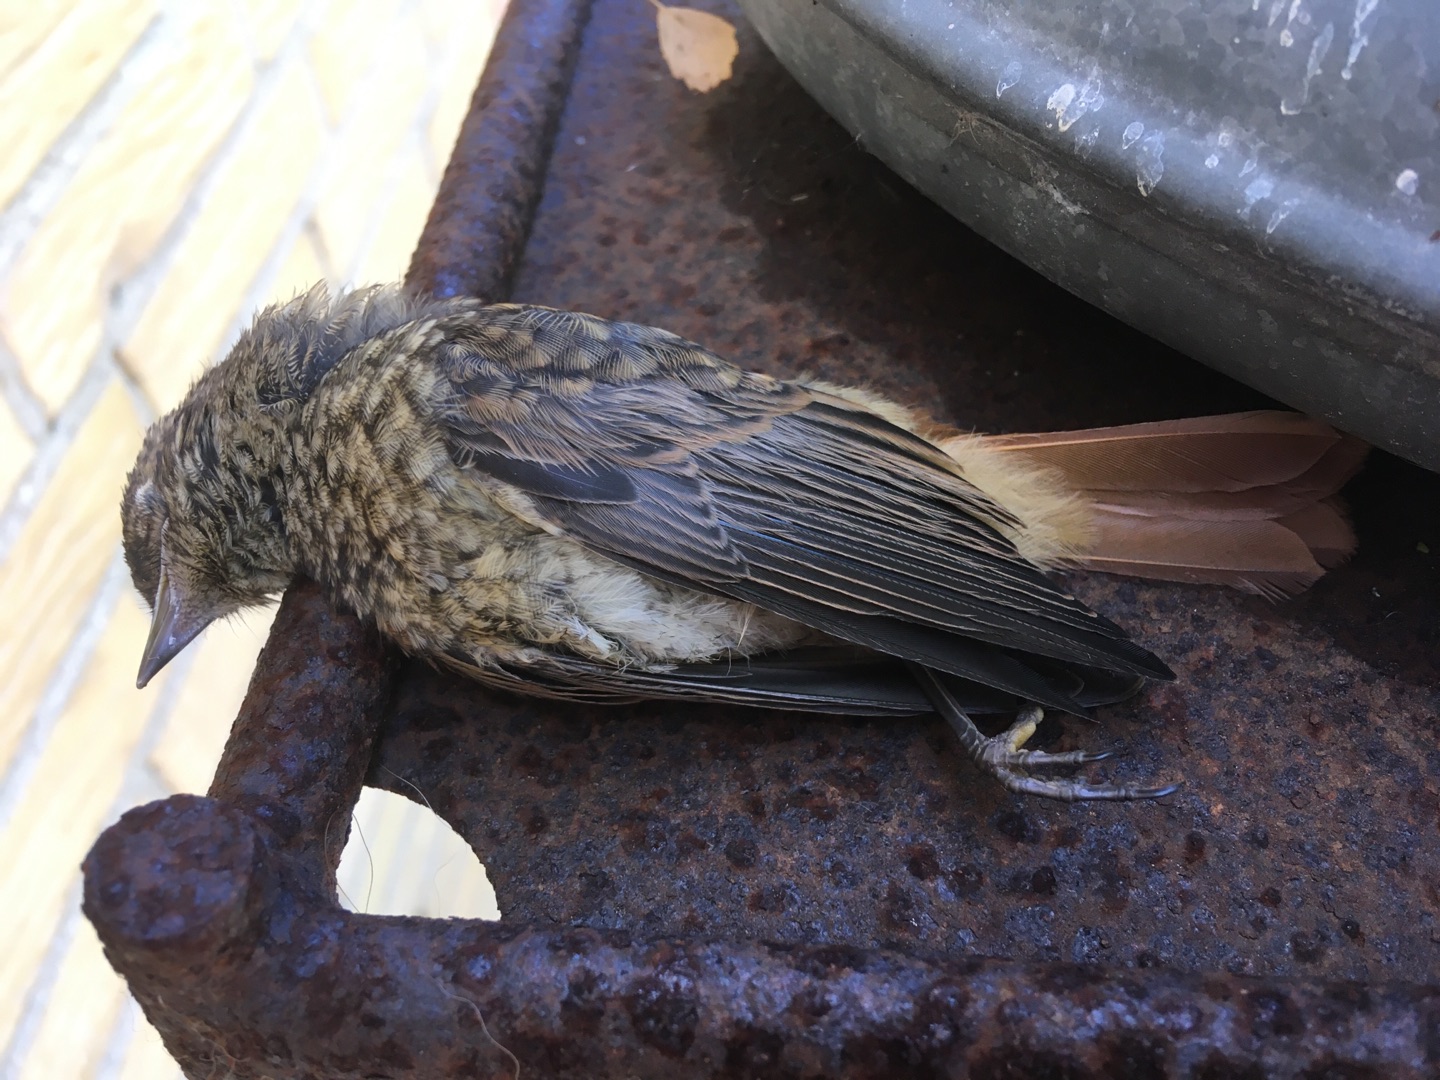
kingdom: Animalia
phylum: Chordata
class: Aves
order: Passeriformes
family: Muscicapidae
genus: Phoenicurus
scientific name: Phoenicurus phoenicurus
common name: Rødstjert
